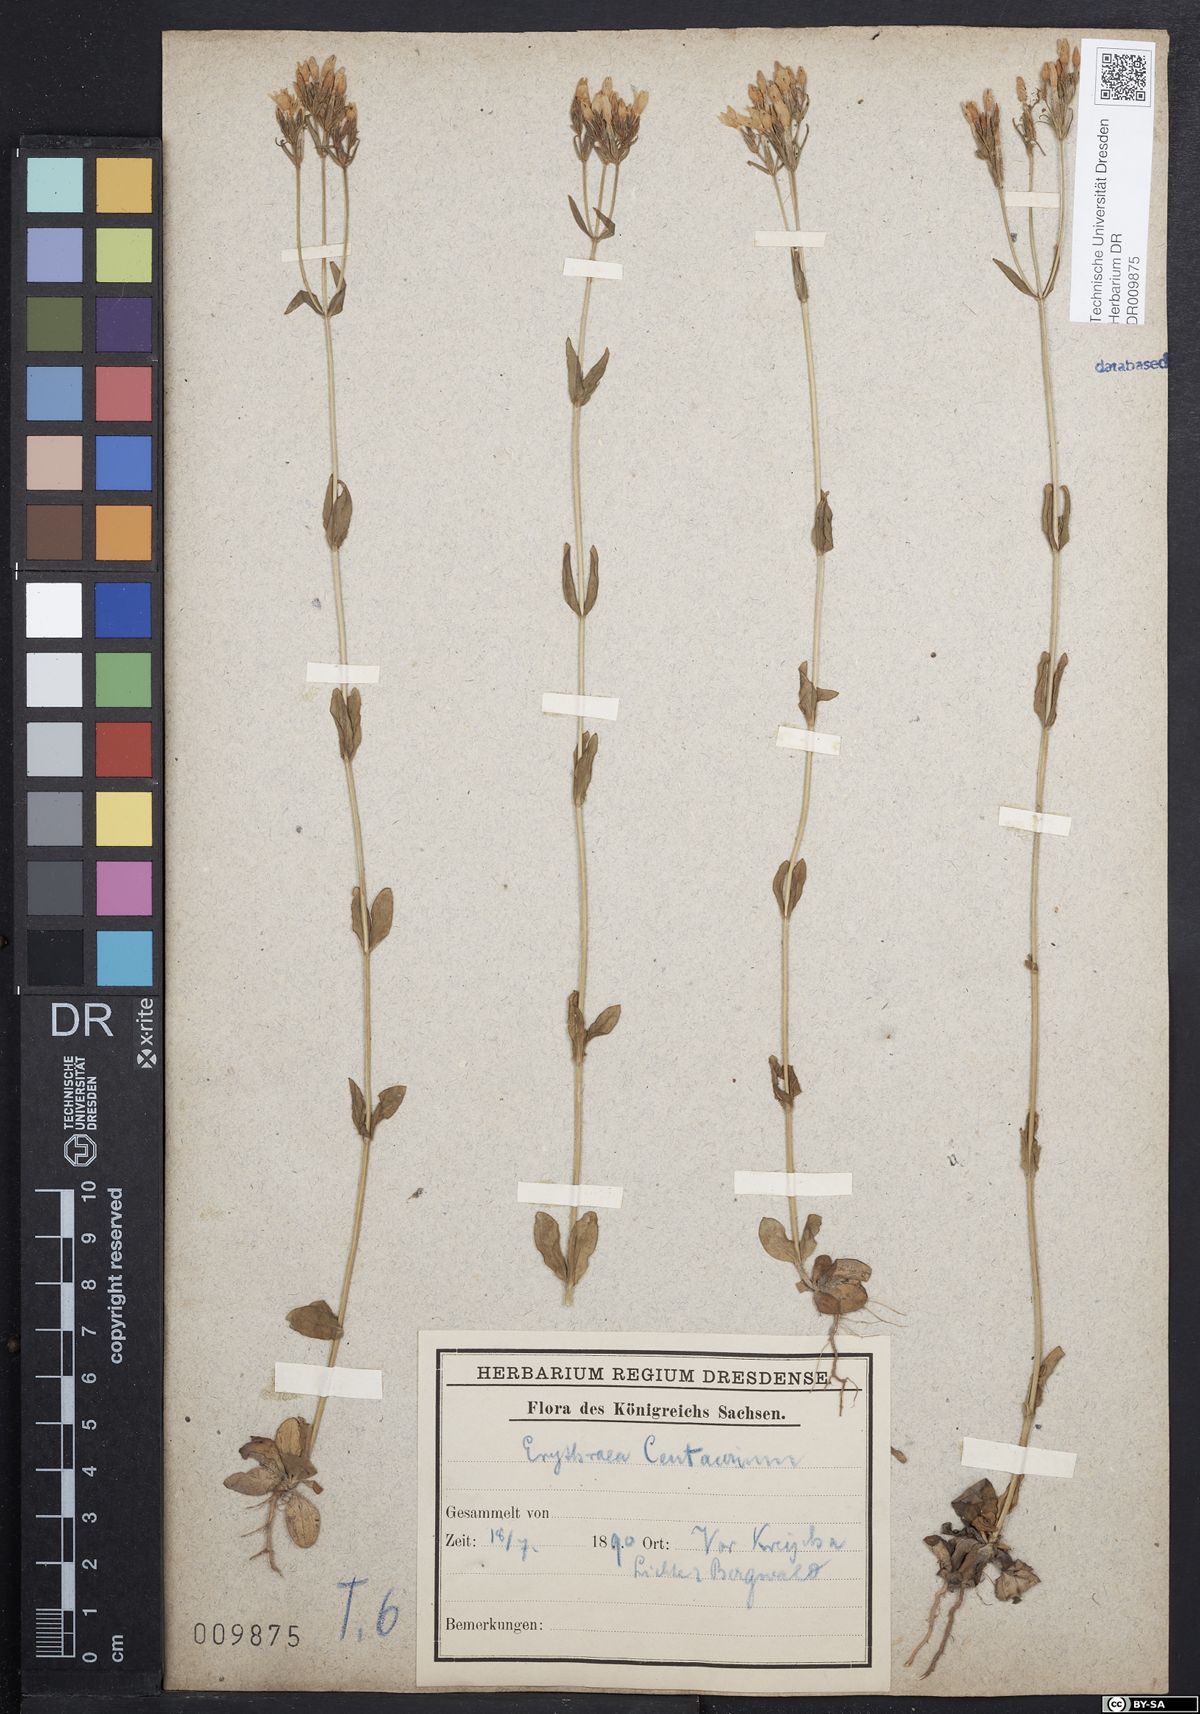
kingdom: Plantae
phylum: Tracheophyta
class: Magnoliopsida
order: Gentianales
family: Gentianaceae
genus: Centaurium
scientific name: Centaurium erythraea
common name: Common centaury
